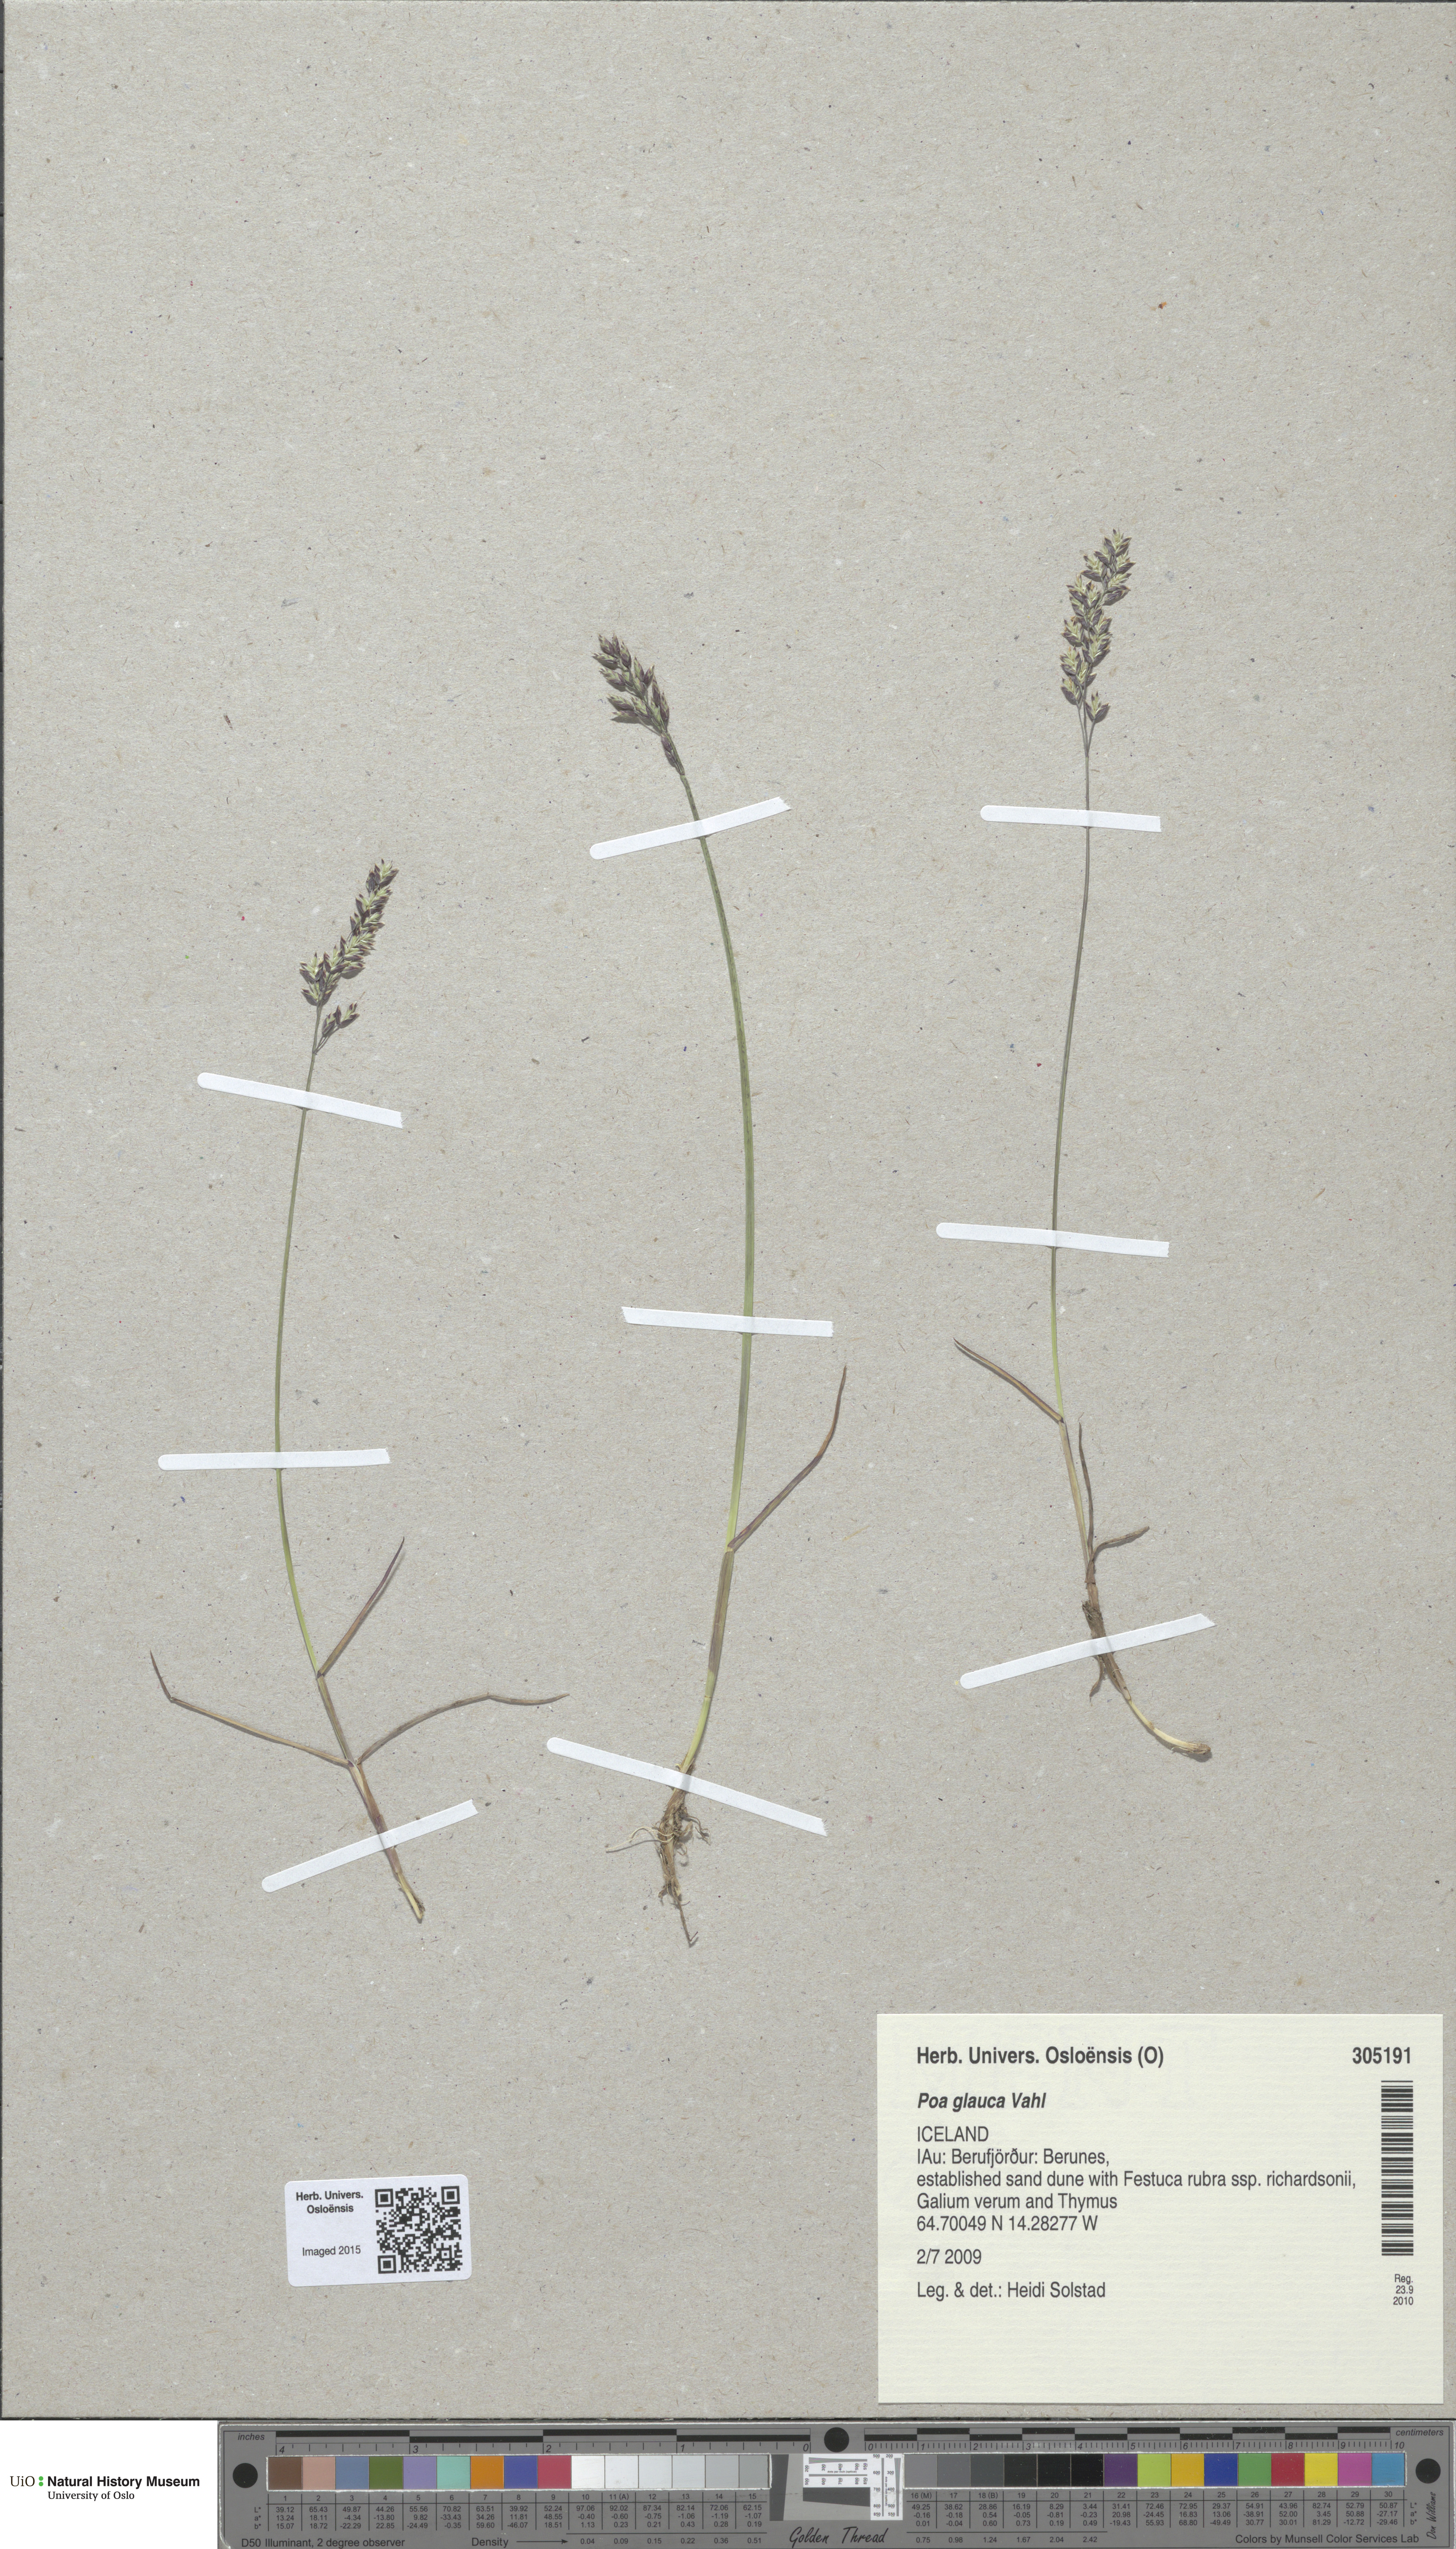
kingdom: Plantae
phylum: Tracheophyta
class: Liliopsida
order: Poales
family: Poaceae
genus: Poa
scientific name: Poa glauca
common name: Glaucous bluegrass
